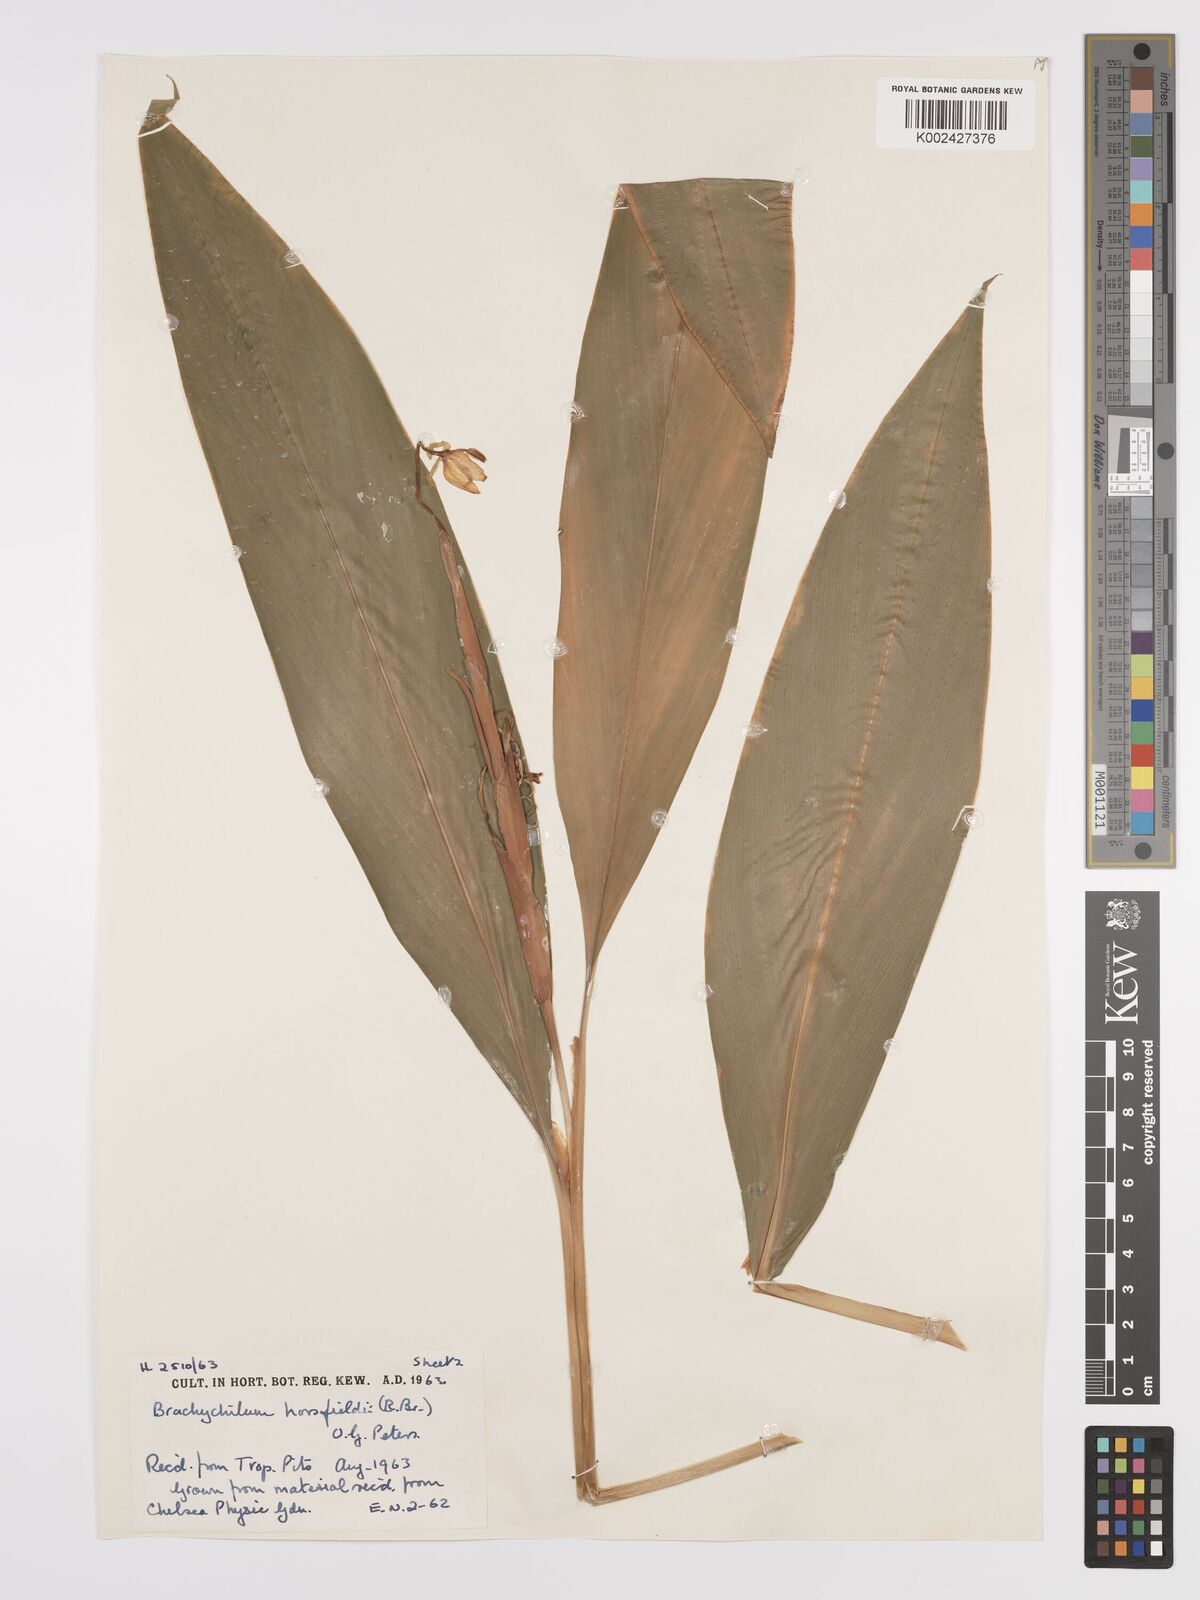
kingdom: Plantae
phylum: Tracheophyta
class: Liliopsida
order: Zingiberales
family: Zingiberaceae
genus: Hedychium
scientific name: Hedychium horsfieldii
